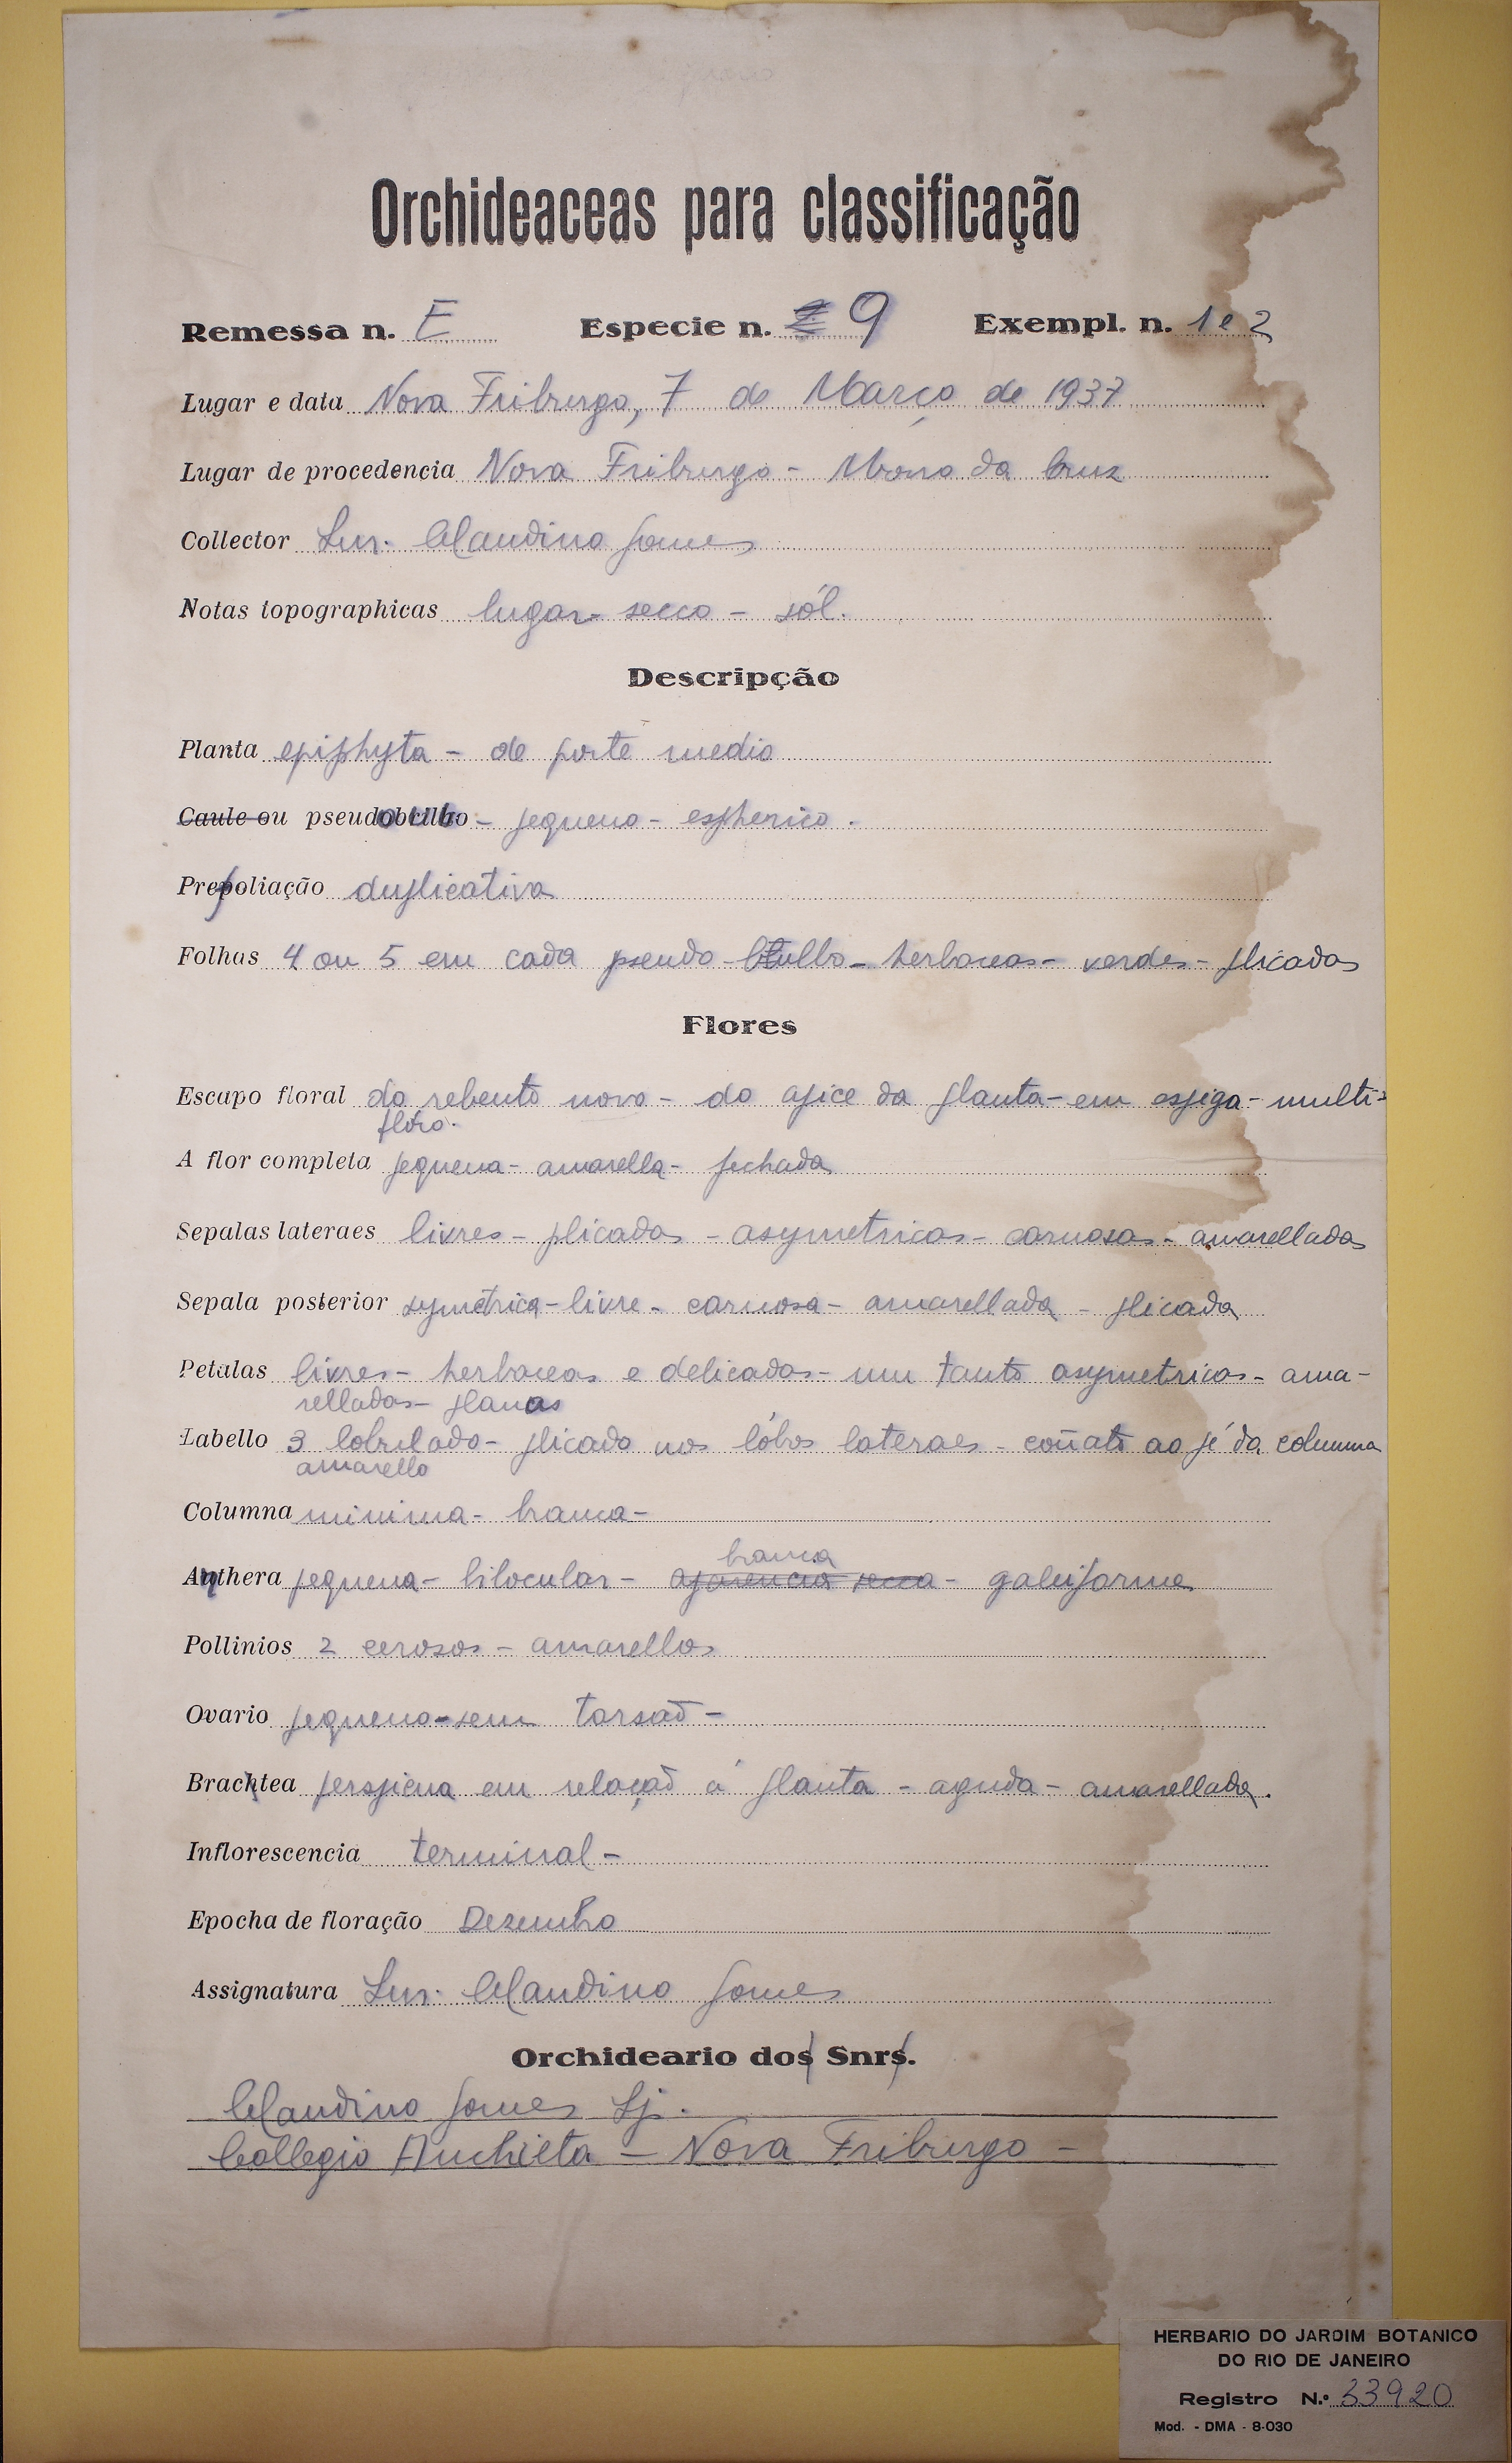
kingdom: Plantae
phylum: Tracheophyta
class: Liliopsida
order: Asparagales
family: Orchidaceae
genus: Polystachya
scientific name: Polystachya
